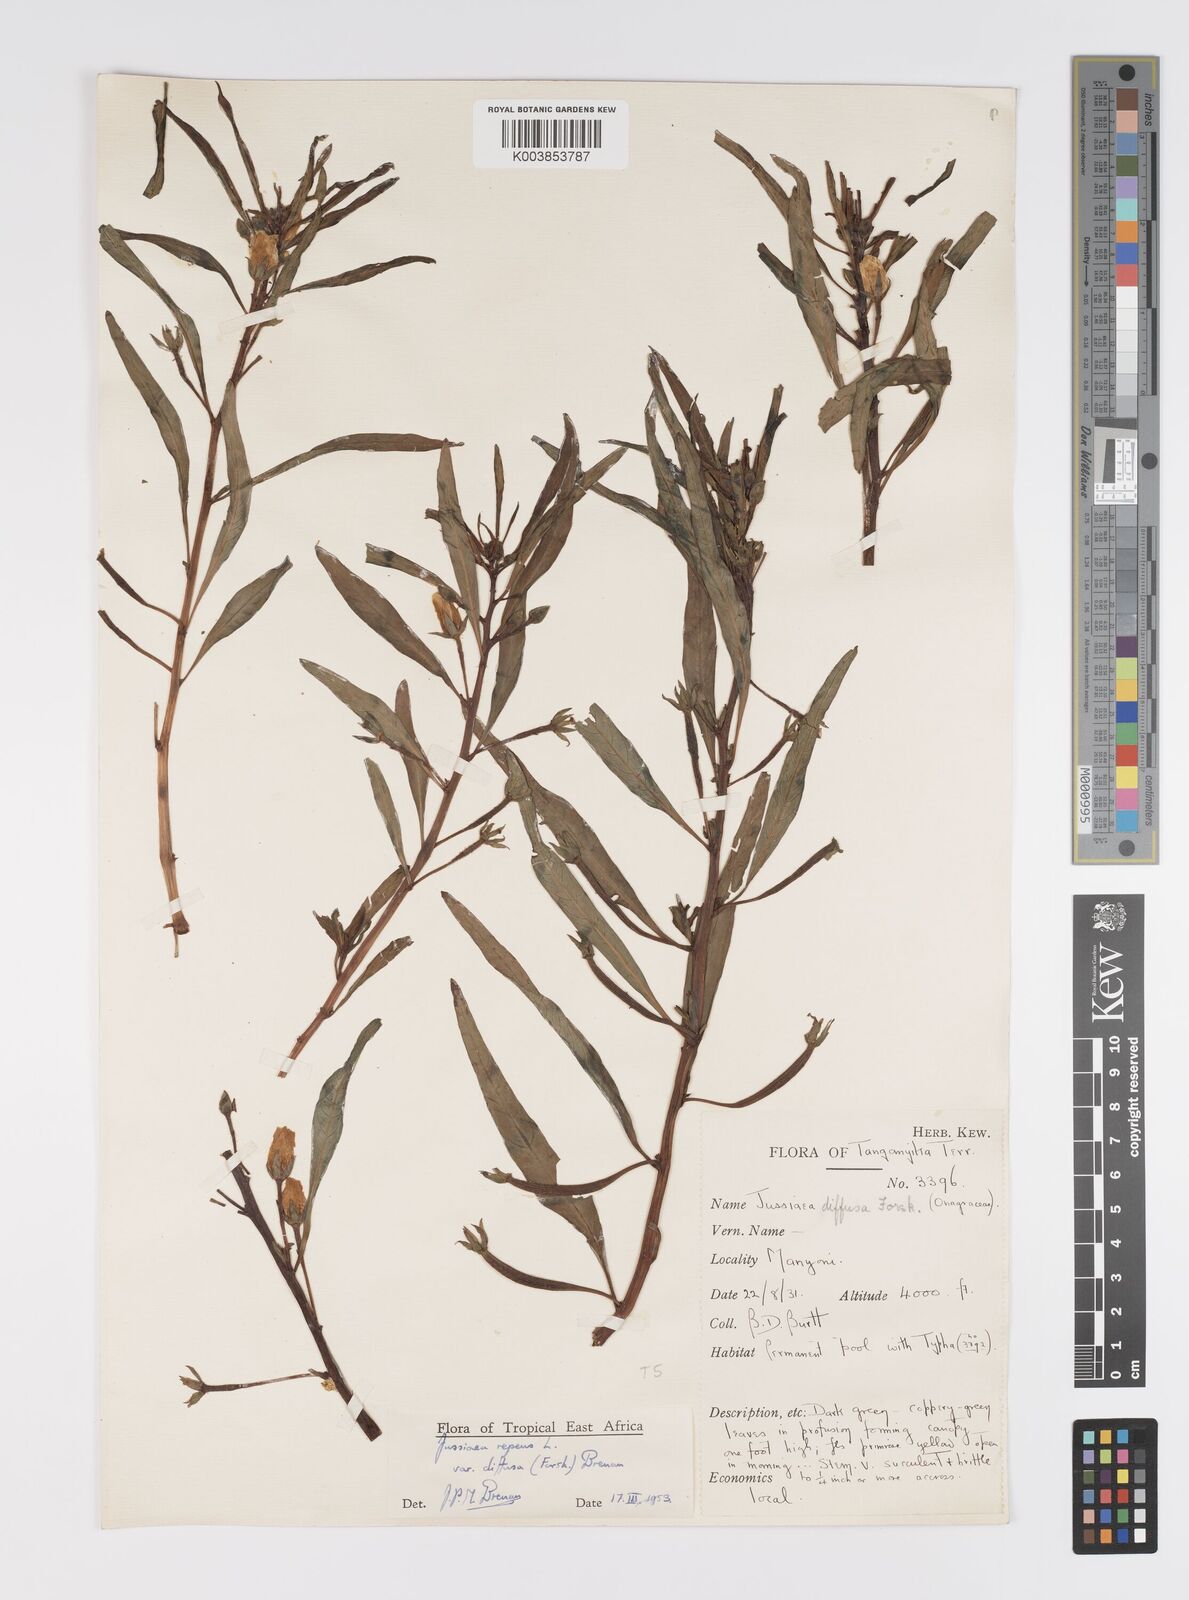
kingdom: Plantae
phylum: Tracheophyta
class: Magnoliopsida
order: Myrtales
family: Onagraceae
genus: Ludwigia
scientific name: Ludwigia repens
